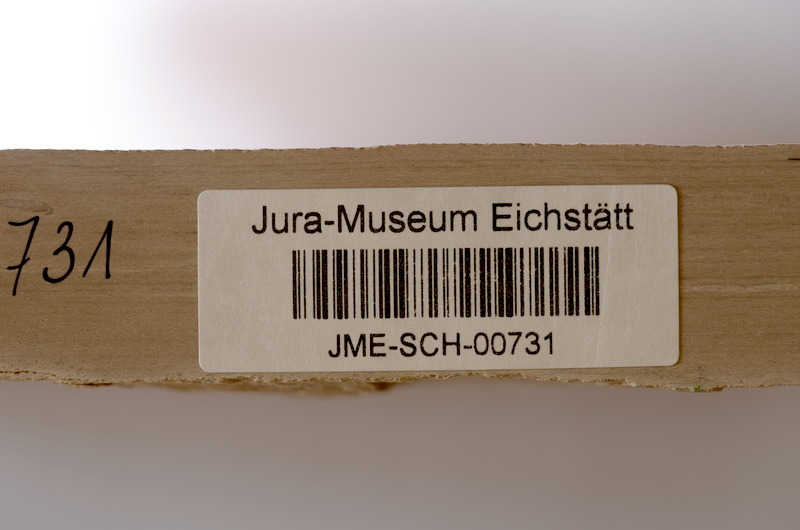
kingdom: Animalia
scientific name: Animalia
